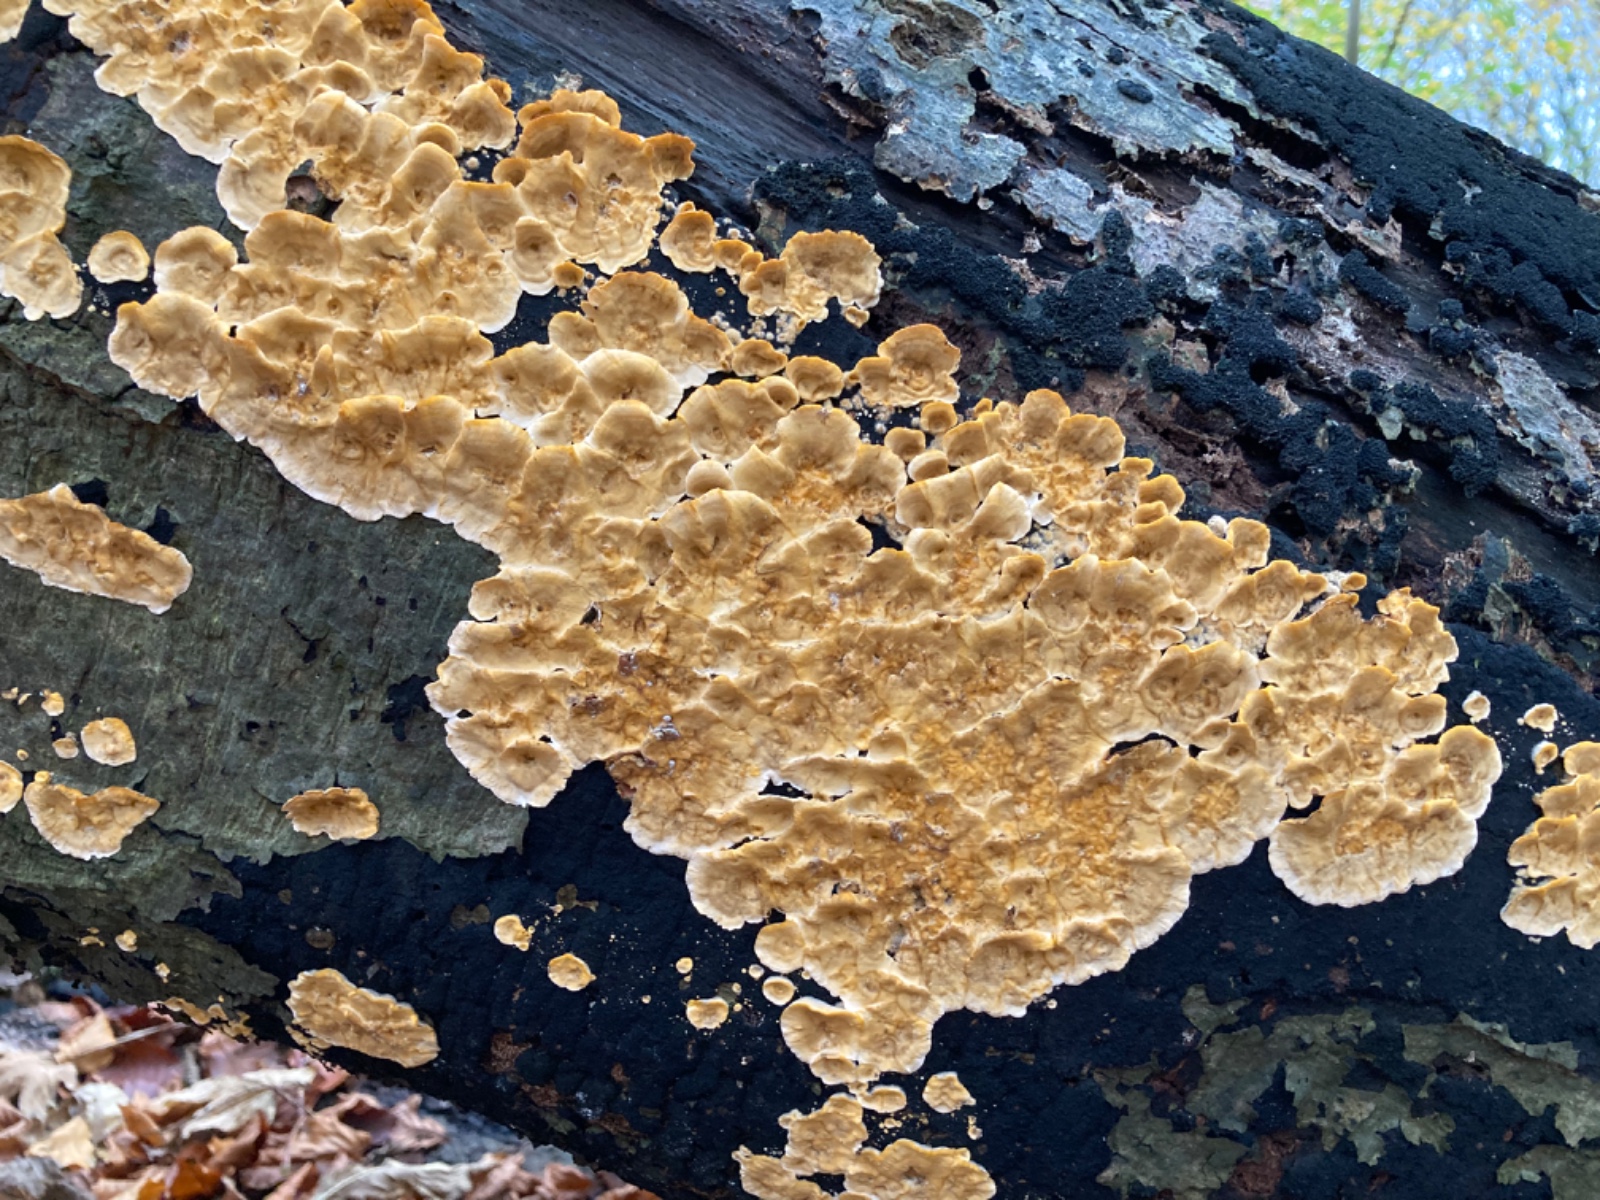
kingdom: Fungi
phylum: Basidiomycota
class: Agaricomycetes
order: Russulales
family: Stereaceae
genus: Stereum
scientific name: Stereum hirsutum
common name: håret lædersvamp
